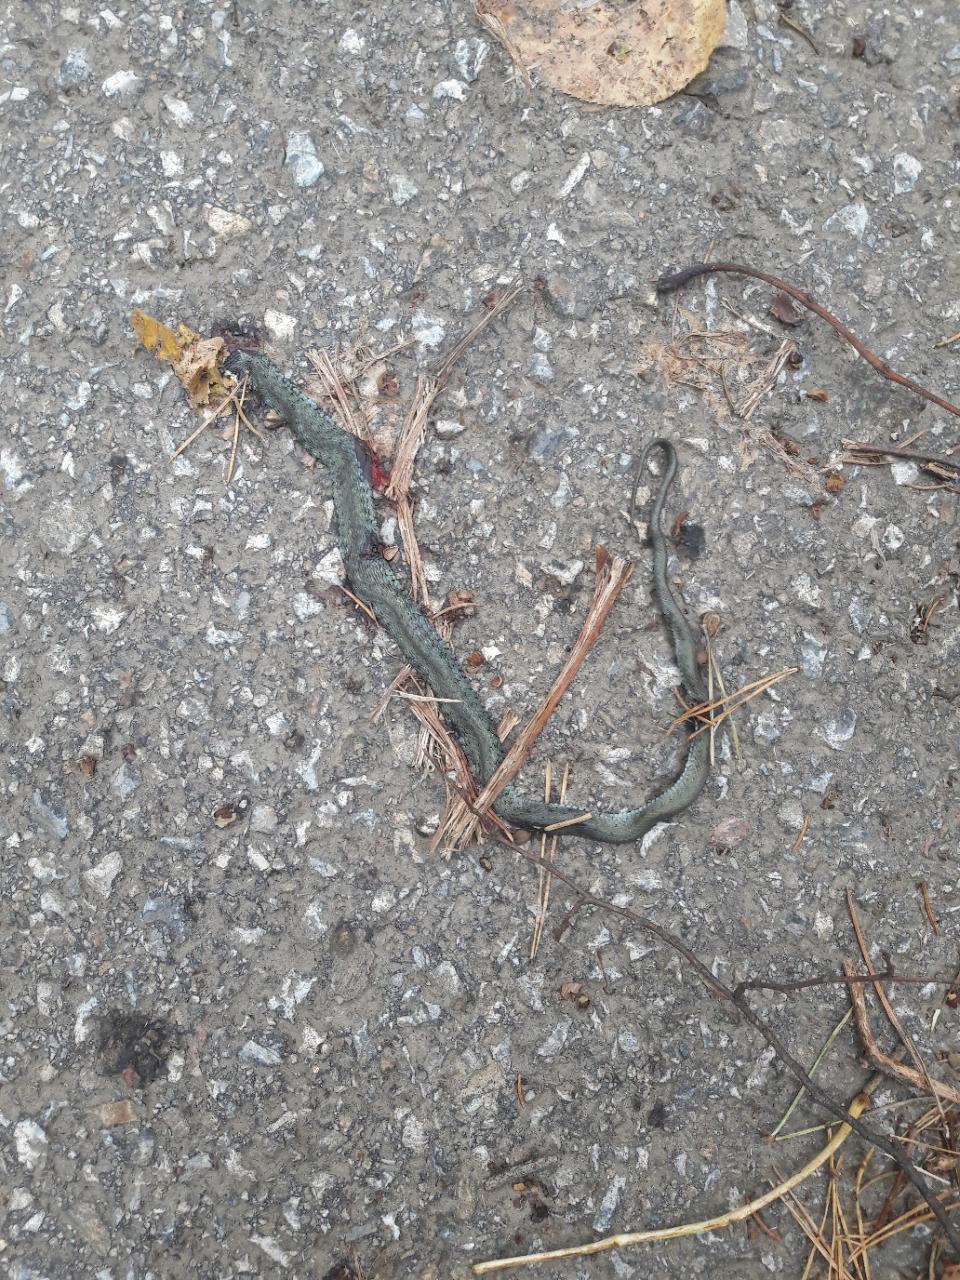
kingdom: Animalia
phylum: Chordata
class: Squamata
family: Colubridae
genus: Natrix
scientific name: Natrix natrix
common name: Grass snake
